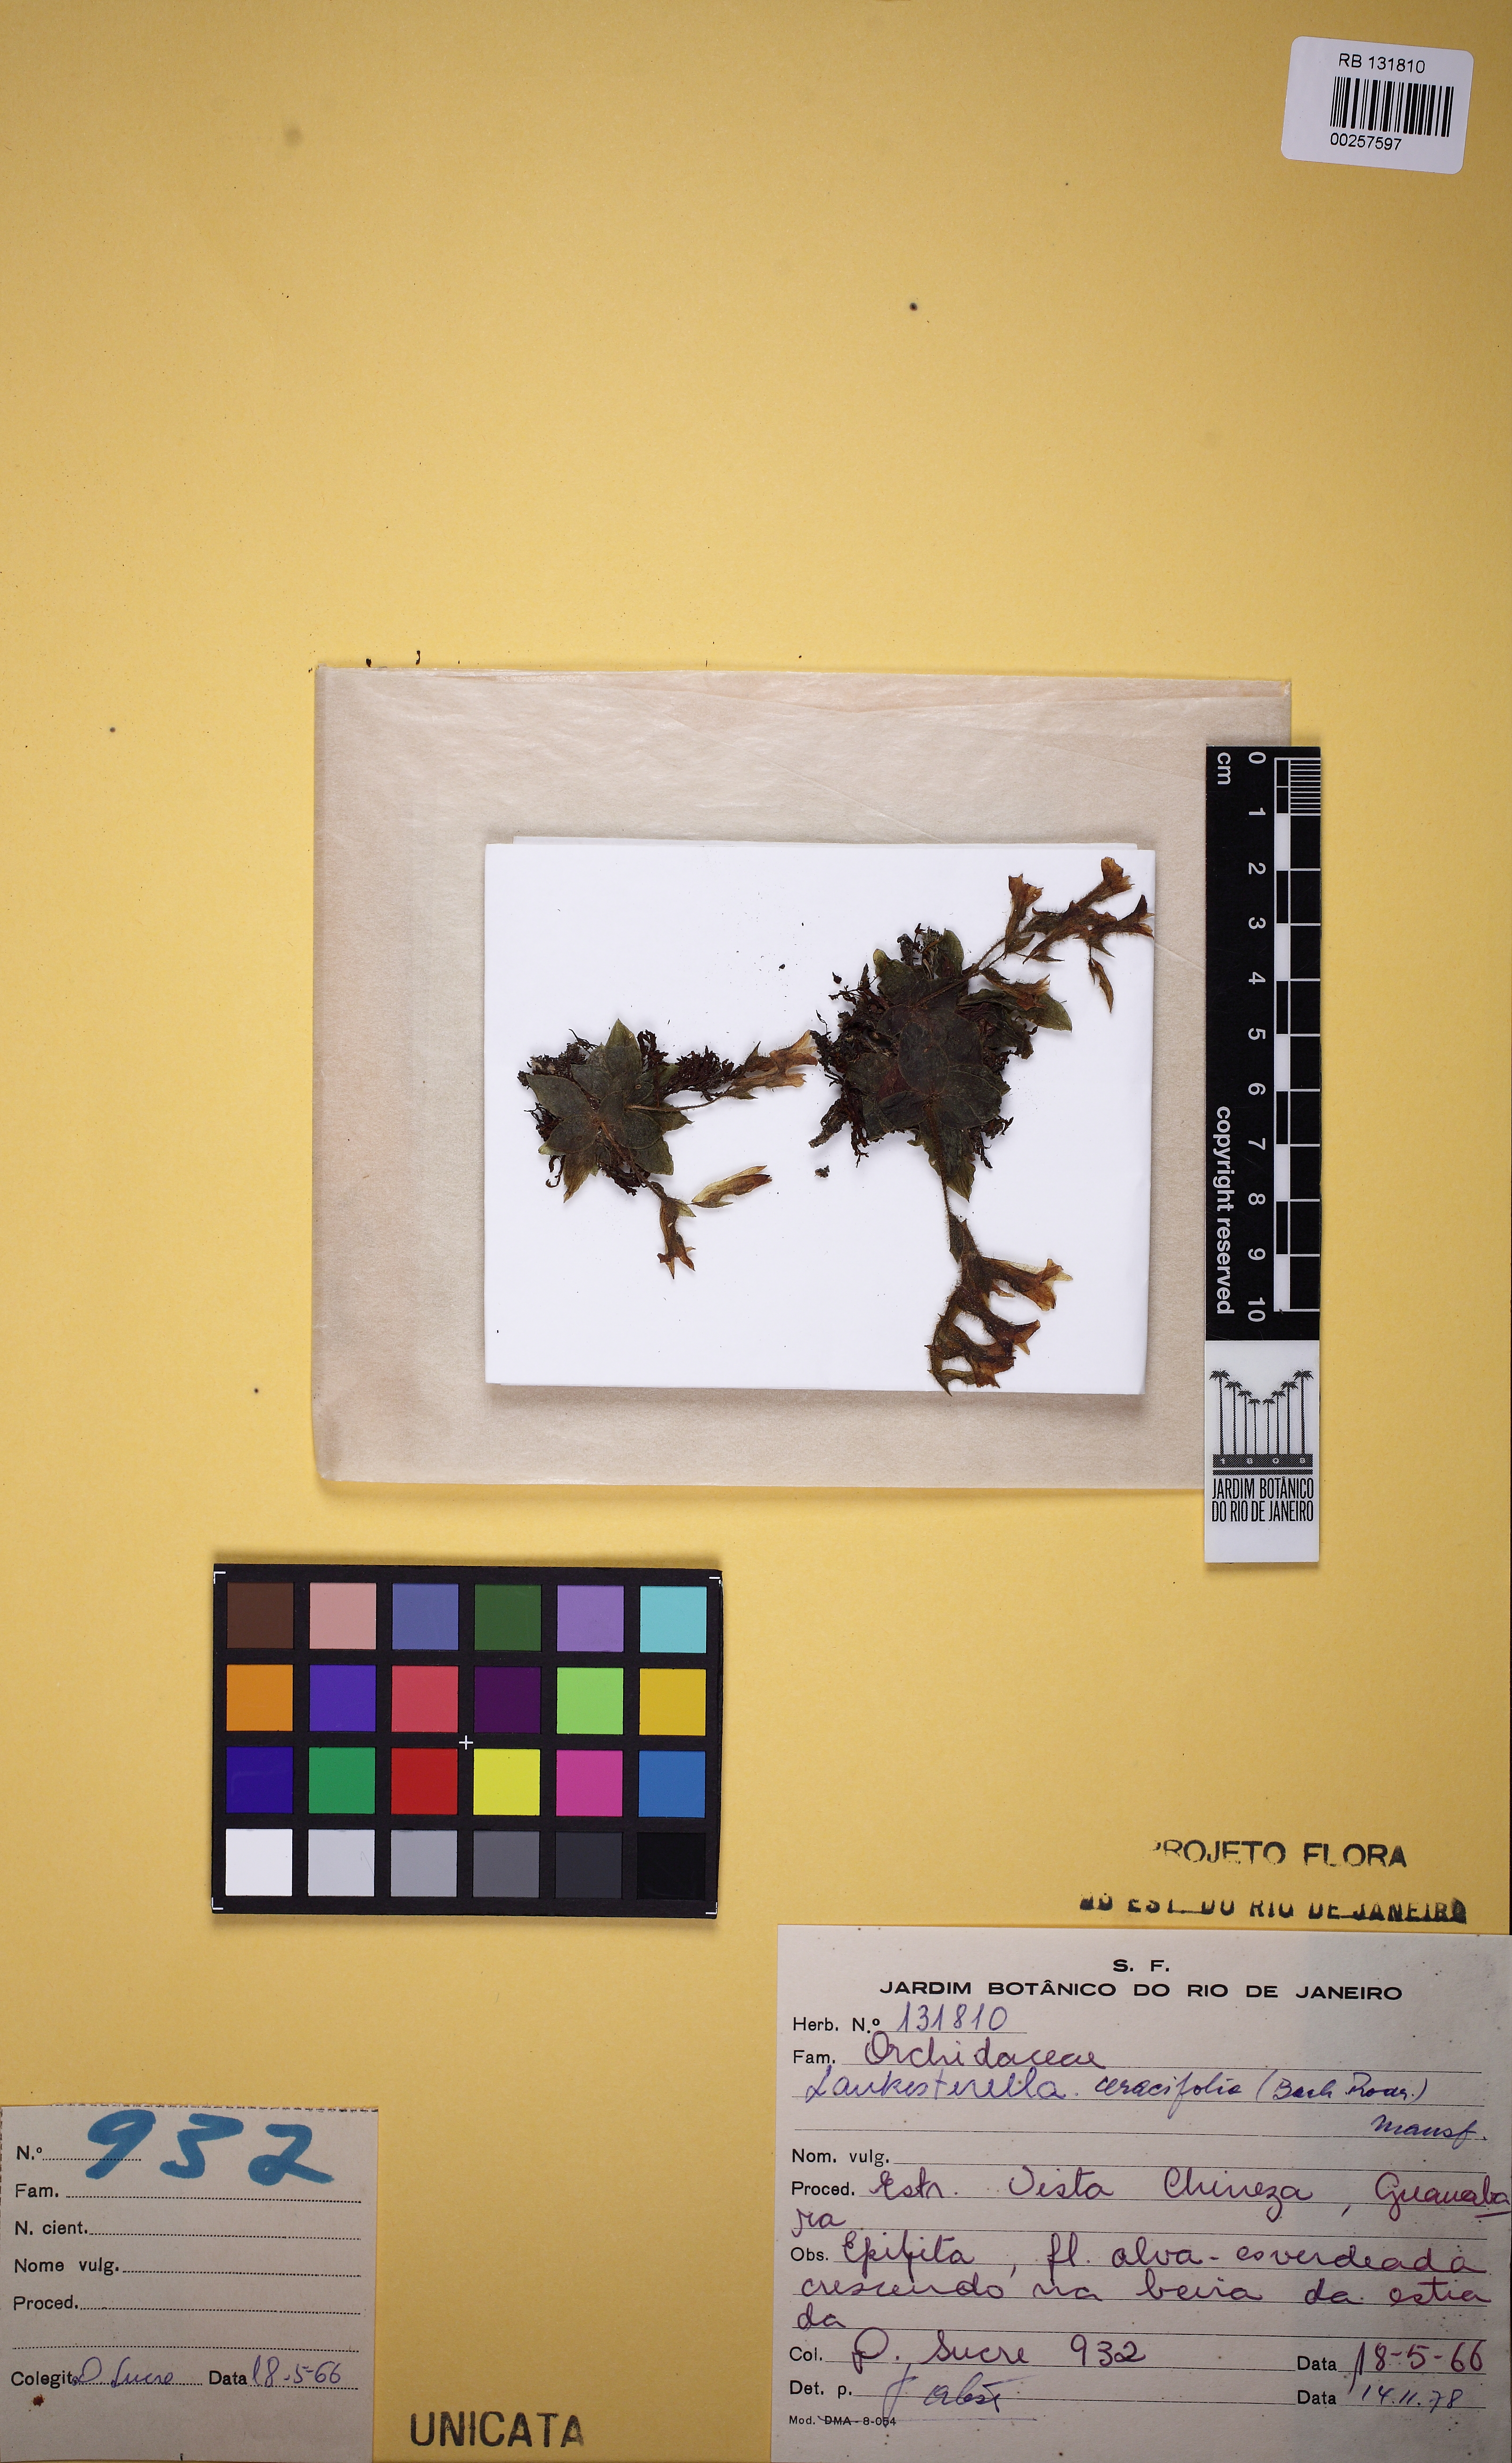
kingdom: Plantae
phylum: Tracheophyta
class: Liliopsida
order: Asparagales
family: Orchidaceae
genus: Lankesterella
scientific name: Lankesterella ceracifolia
